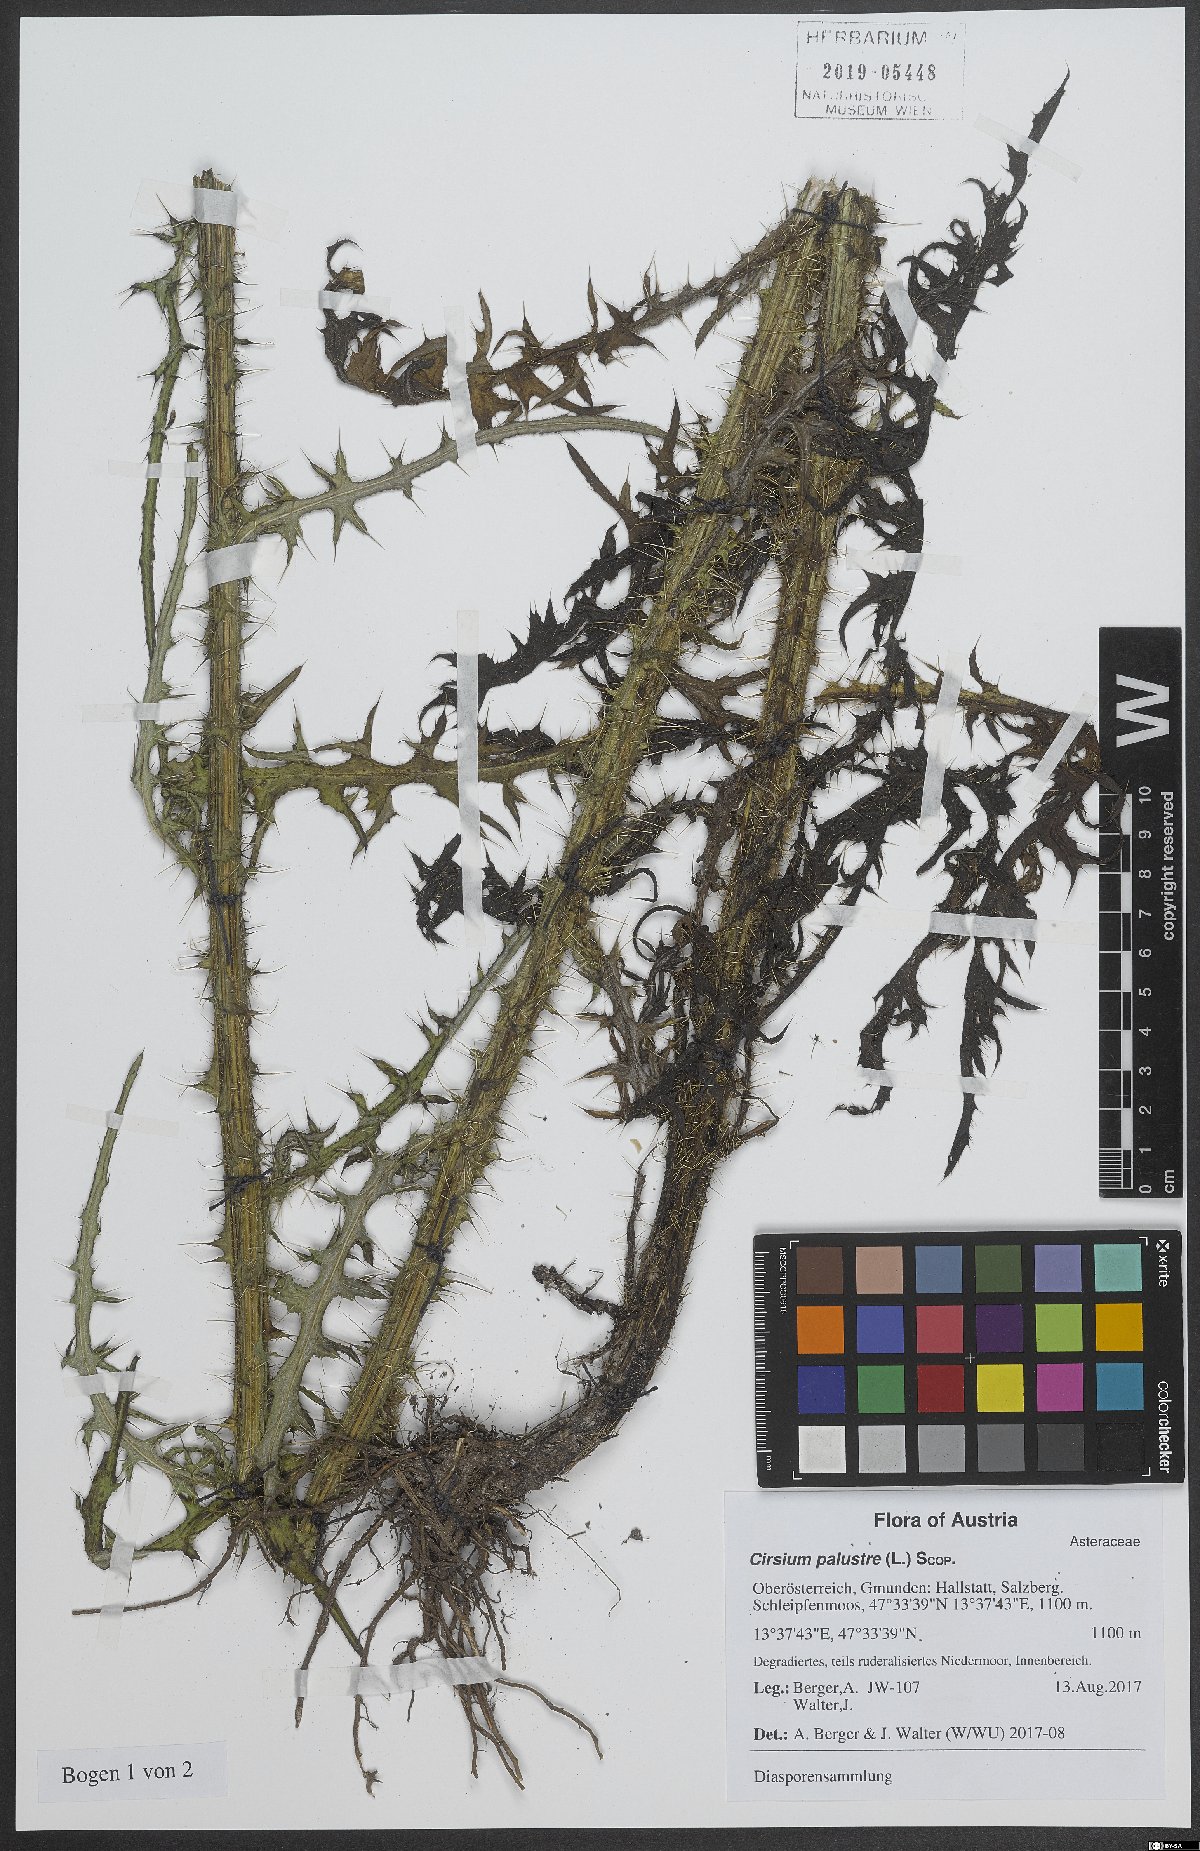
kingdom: Plantae
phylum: Tracheophyta
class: Magnoliopsida
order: Asterales
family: Asteraceae
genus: Cirsium
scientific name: Cirsium palustre
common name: Marsh thistle
